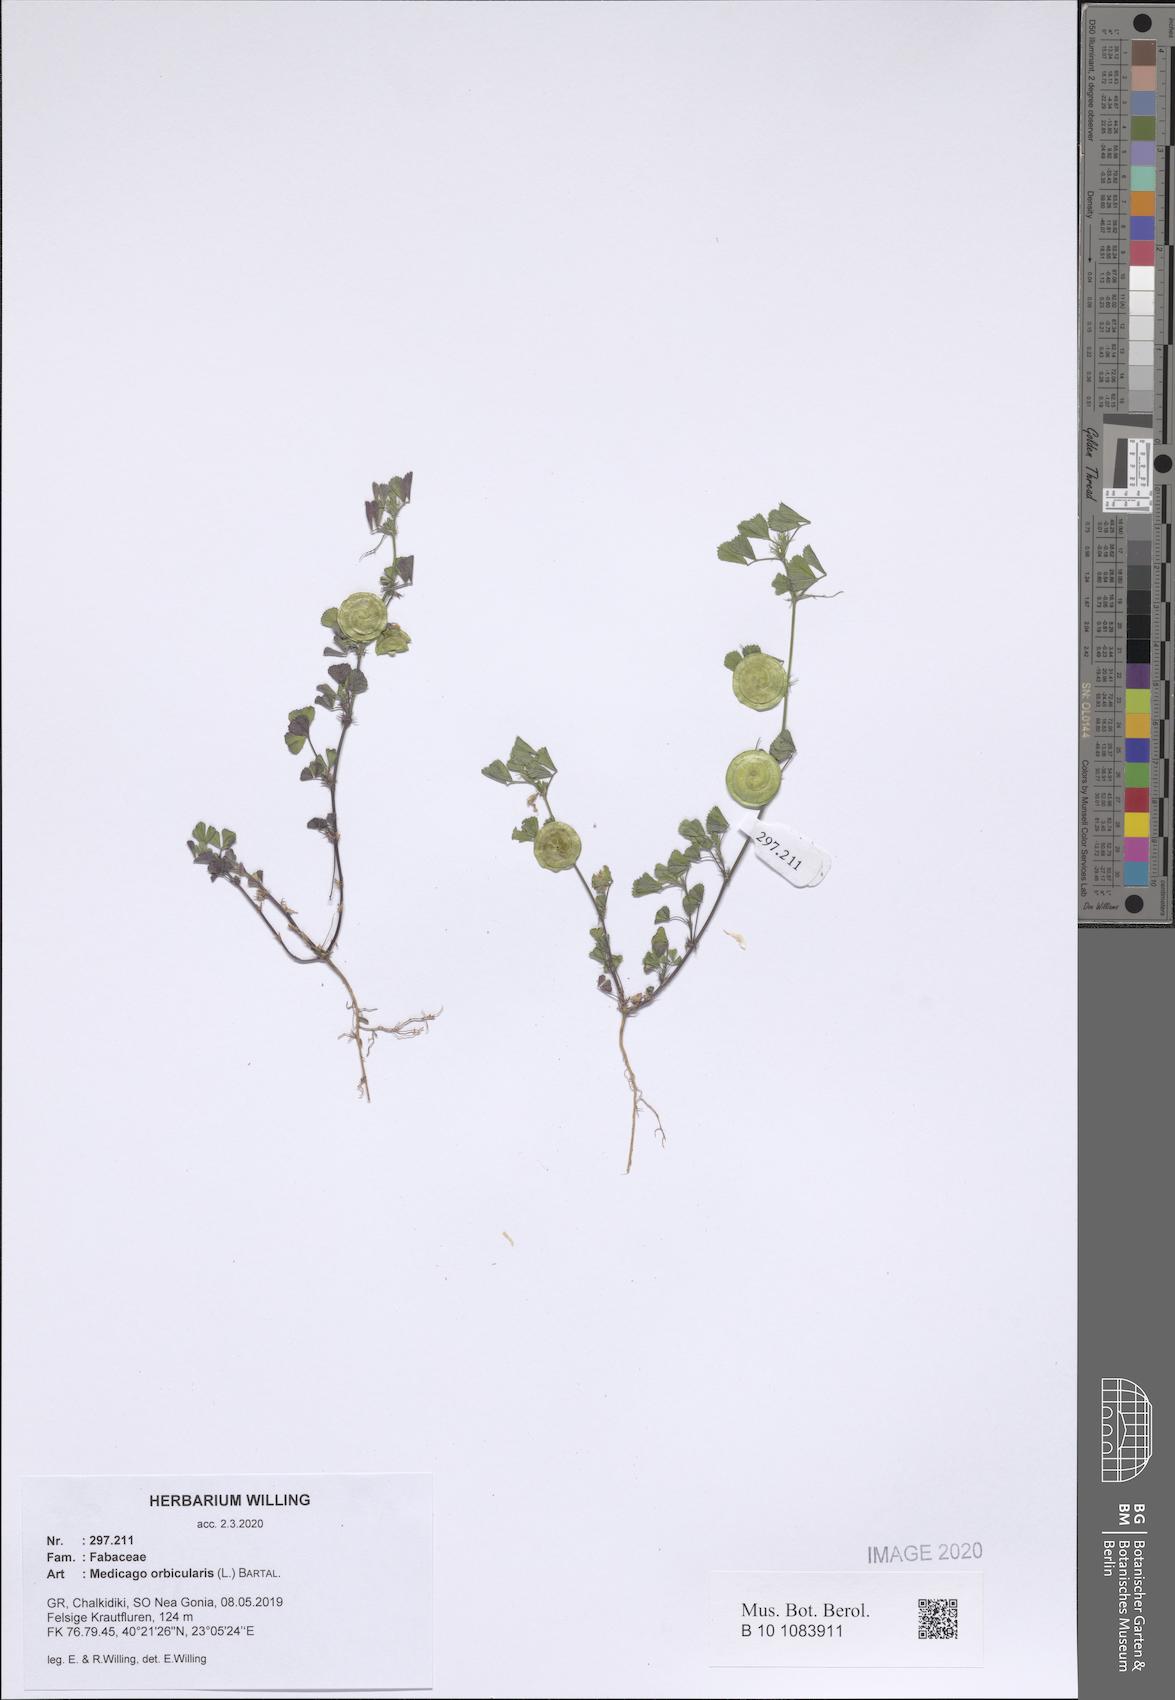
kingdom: Plantae
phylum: Tracheophyta
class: Magnoliopsida
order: Fabales
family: Fabaceae
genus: Medicago
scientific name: Medicago orbicularis
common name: Button medick
